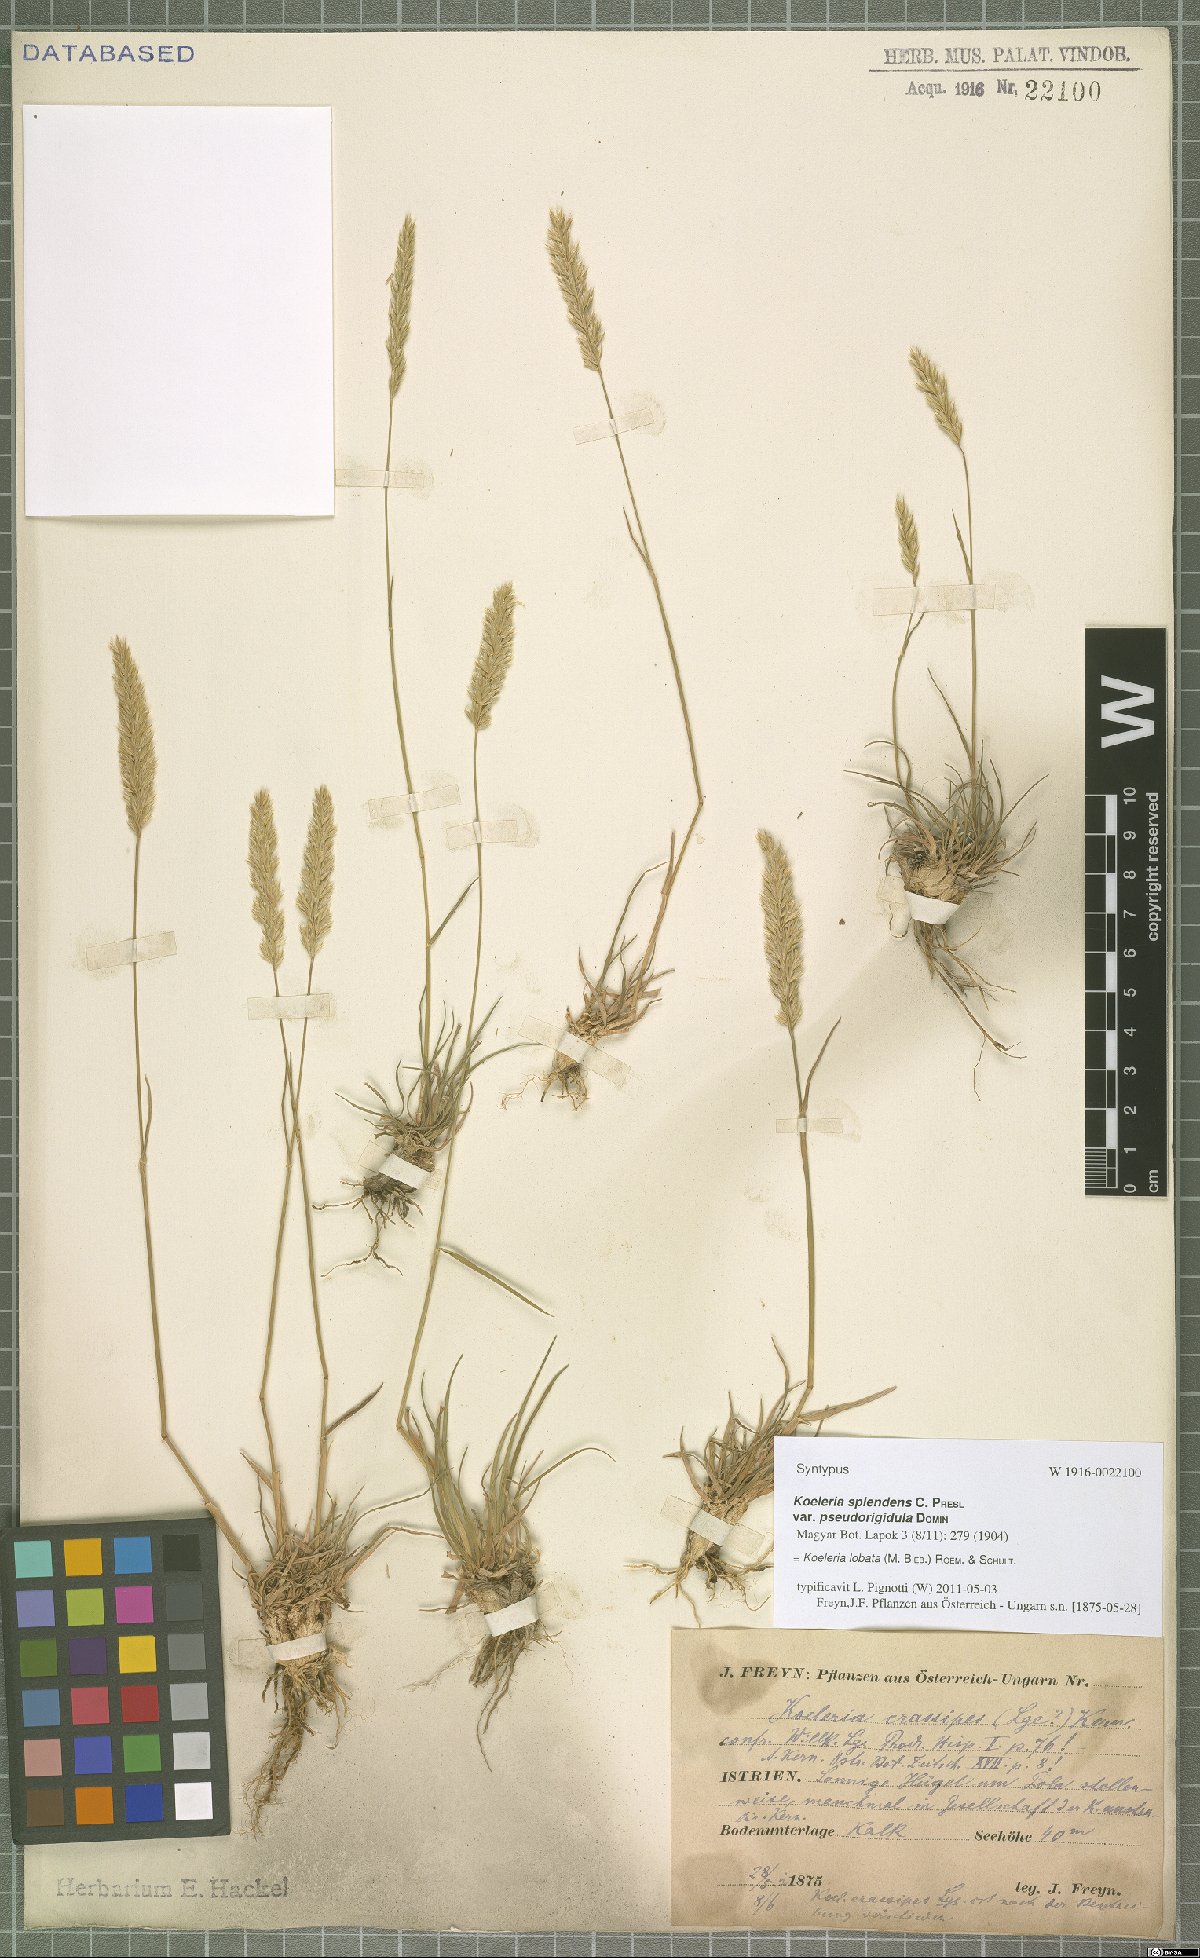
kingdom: Plantae
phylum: Tracheophyta
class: Liliopsida
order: Poales
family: Poaceae
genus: Koeleria
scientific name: Koeleria brevis
